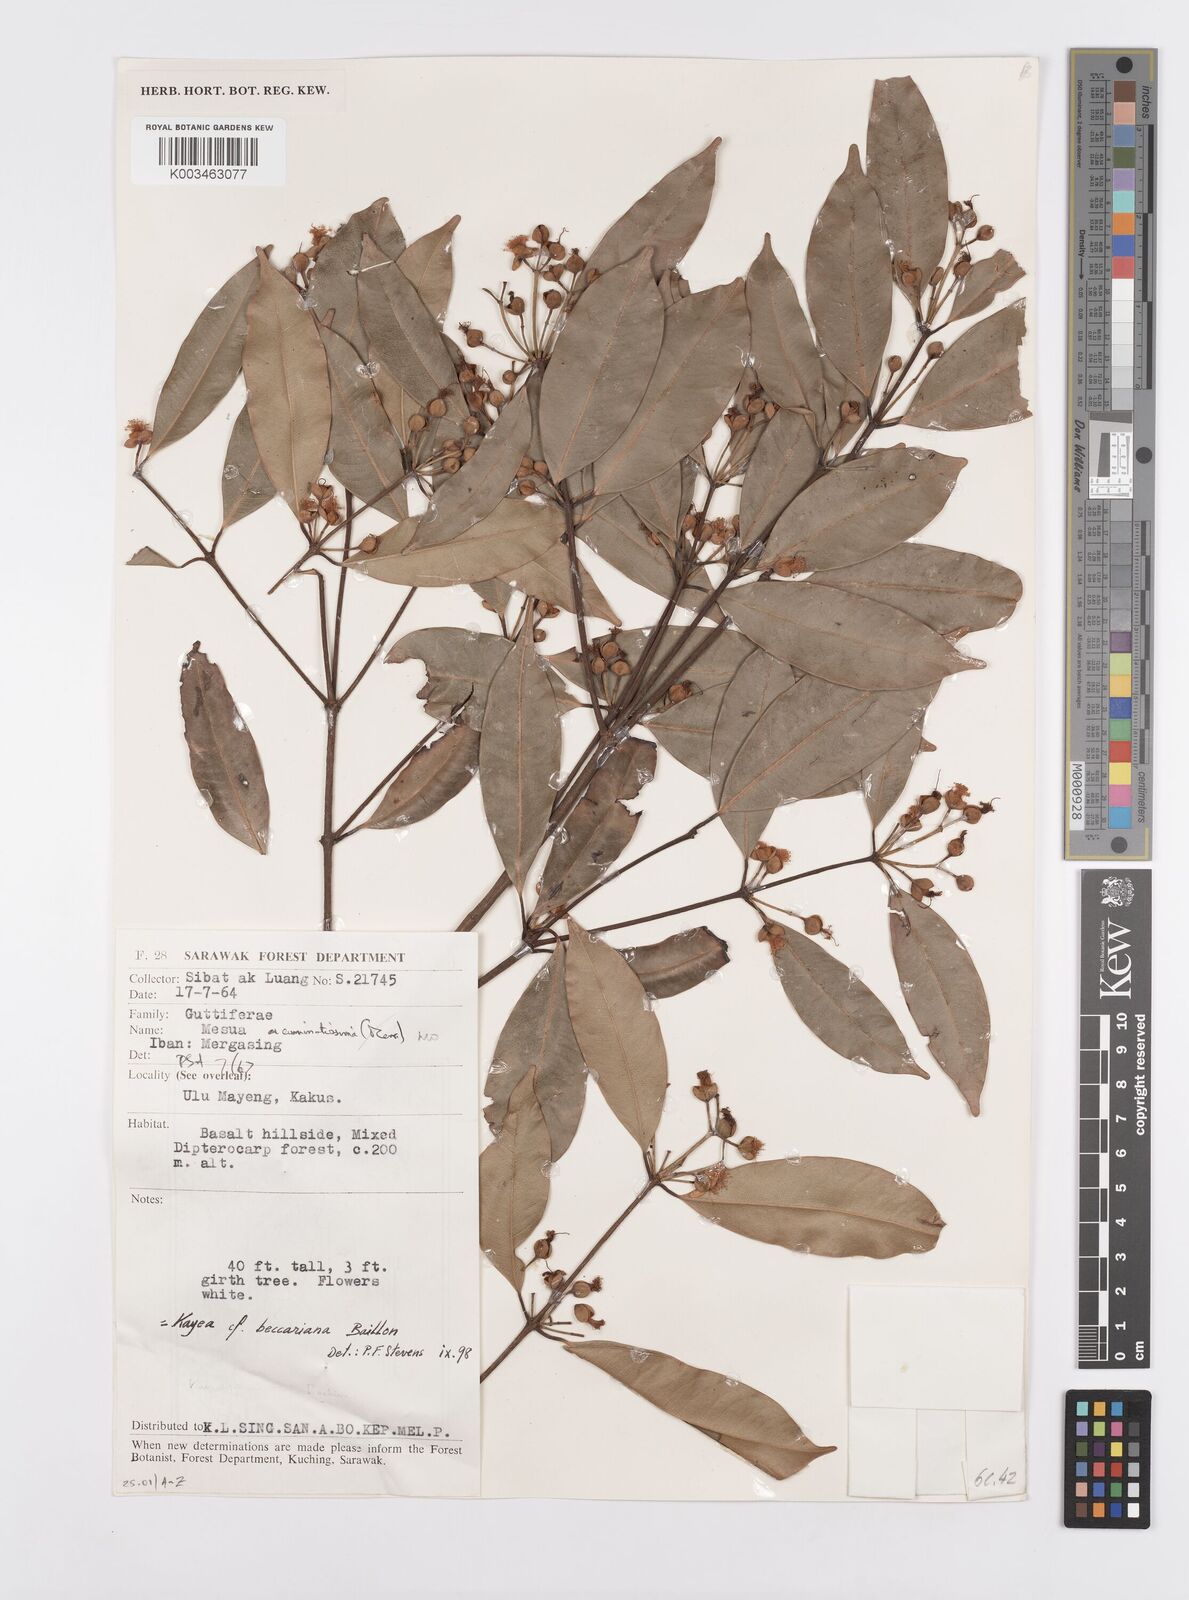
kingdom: Plantae
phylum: Tracheophyta
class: Magnoliopsida
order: Malpighiales
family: Calophyllaceae
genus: Kayea
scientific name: Kayea beccariana
